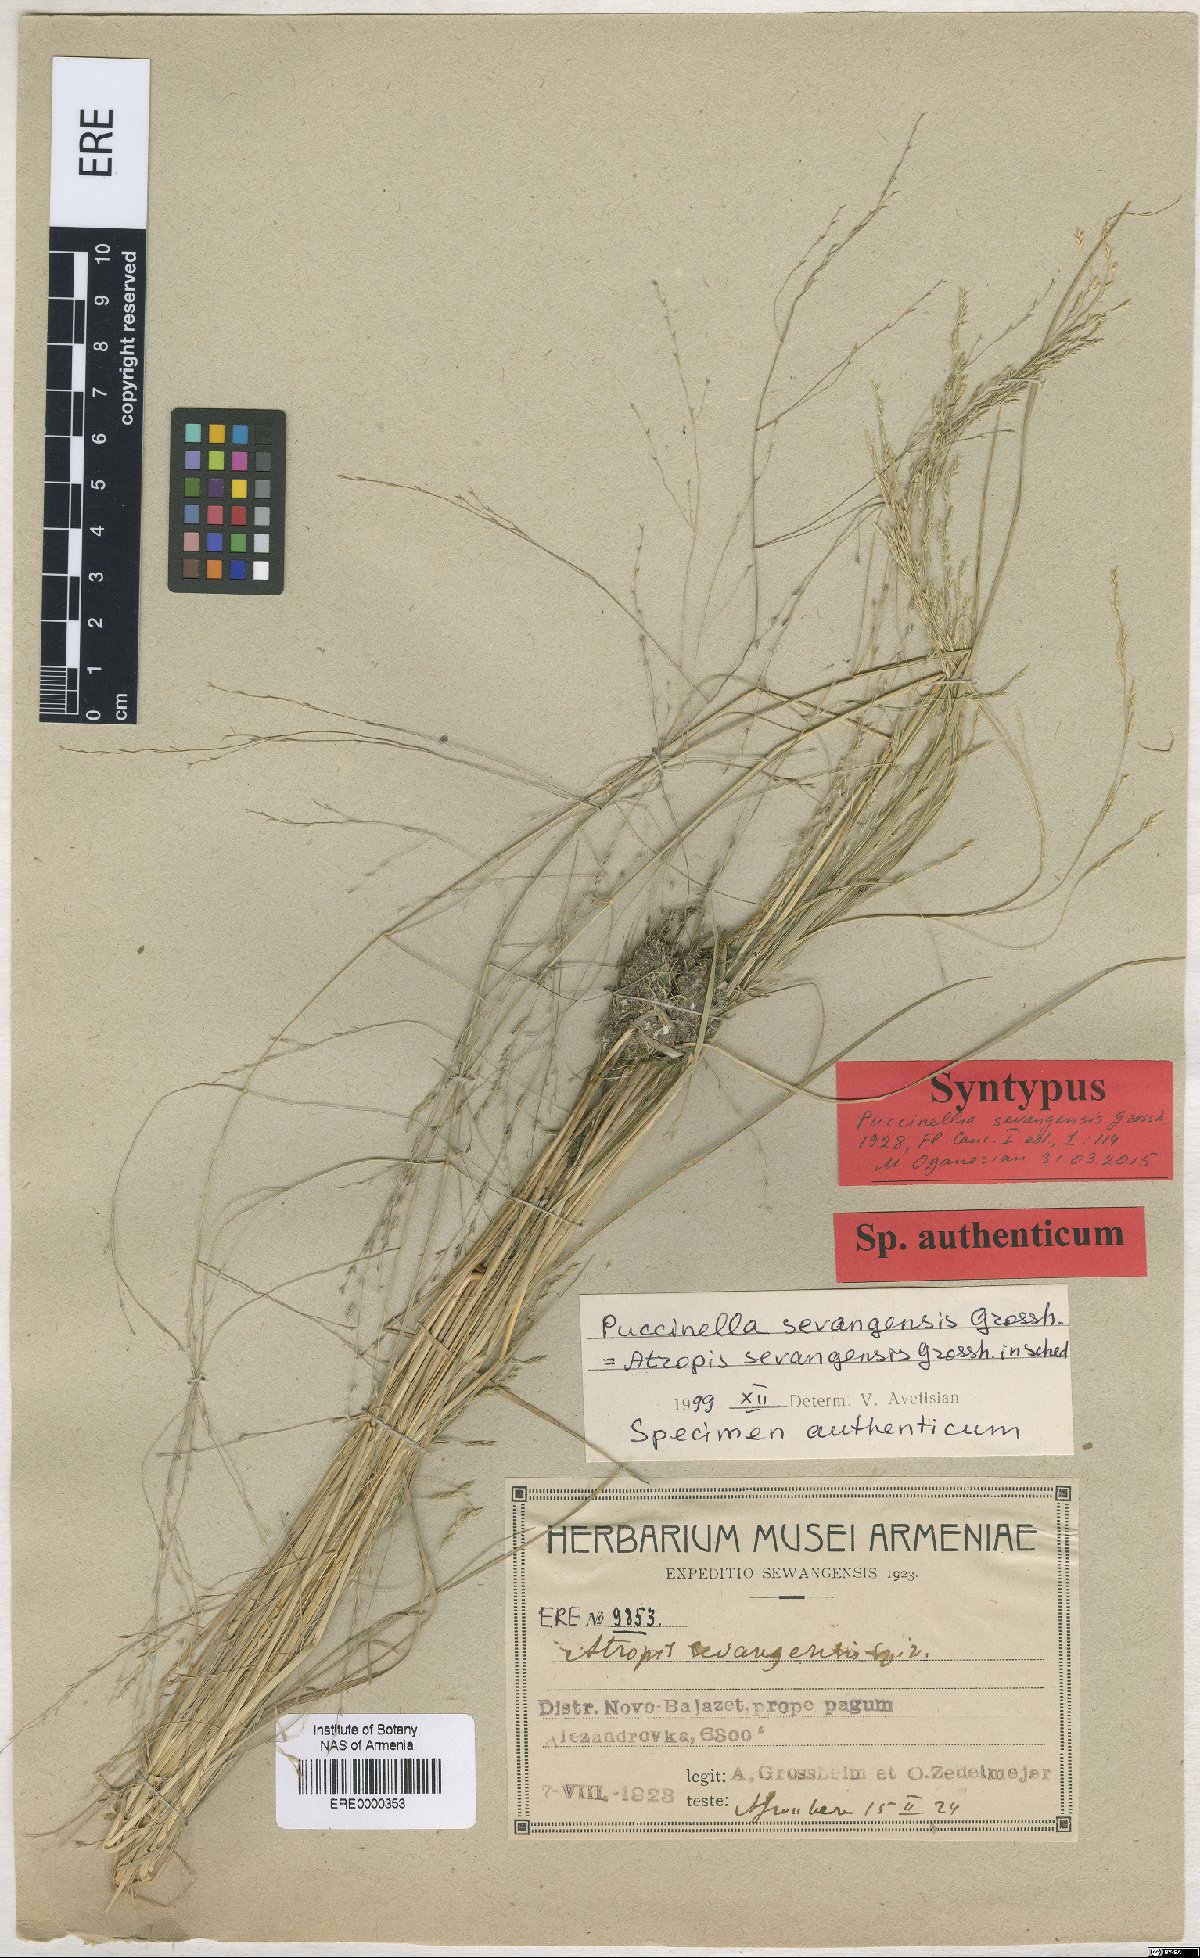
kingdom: Plantae
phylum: Tracheophyta
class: Liliopsida
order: Poales
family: Poaceae
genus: Puccinellia
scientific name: Puccinellia distans
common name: Weeping alkaligrass
